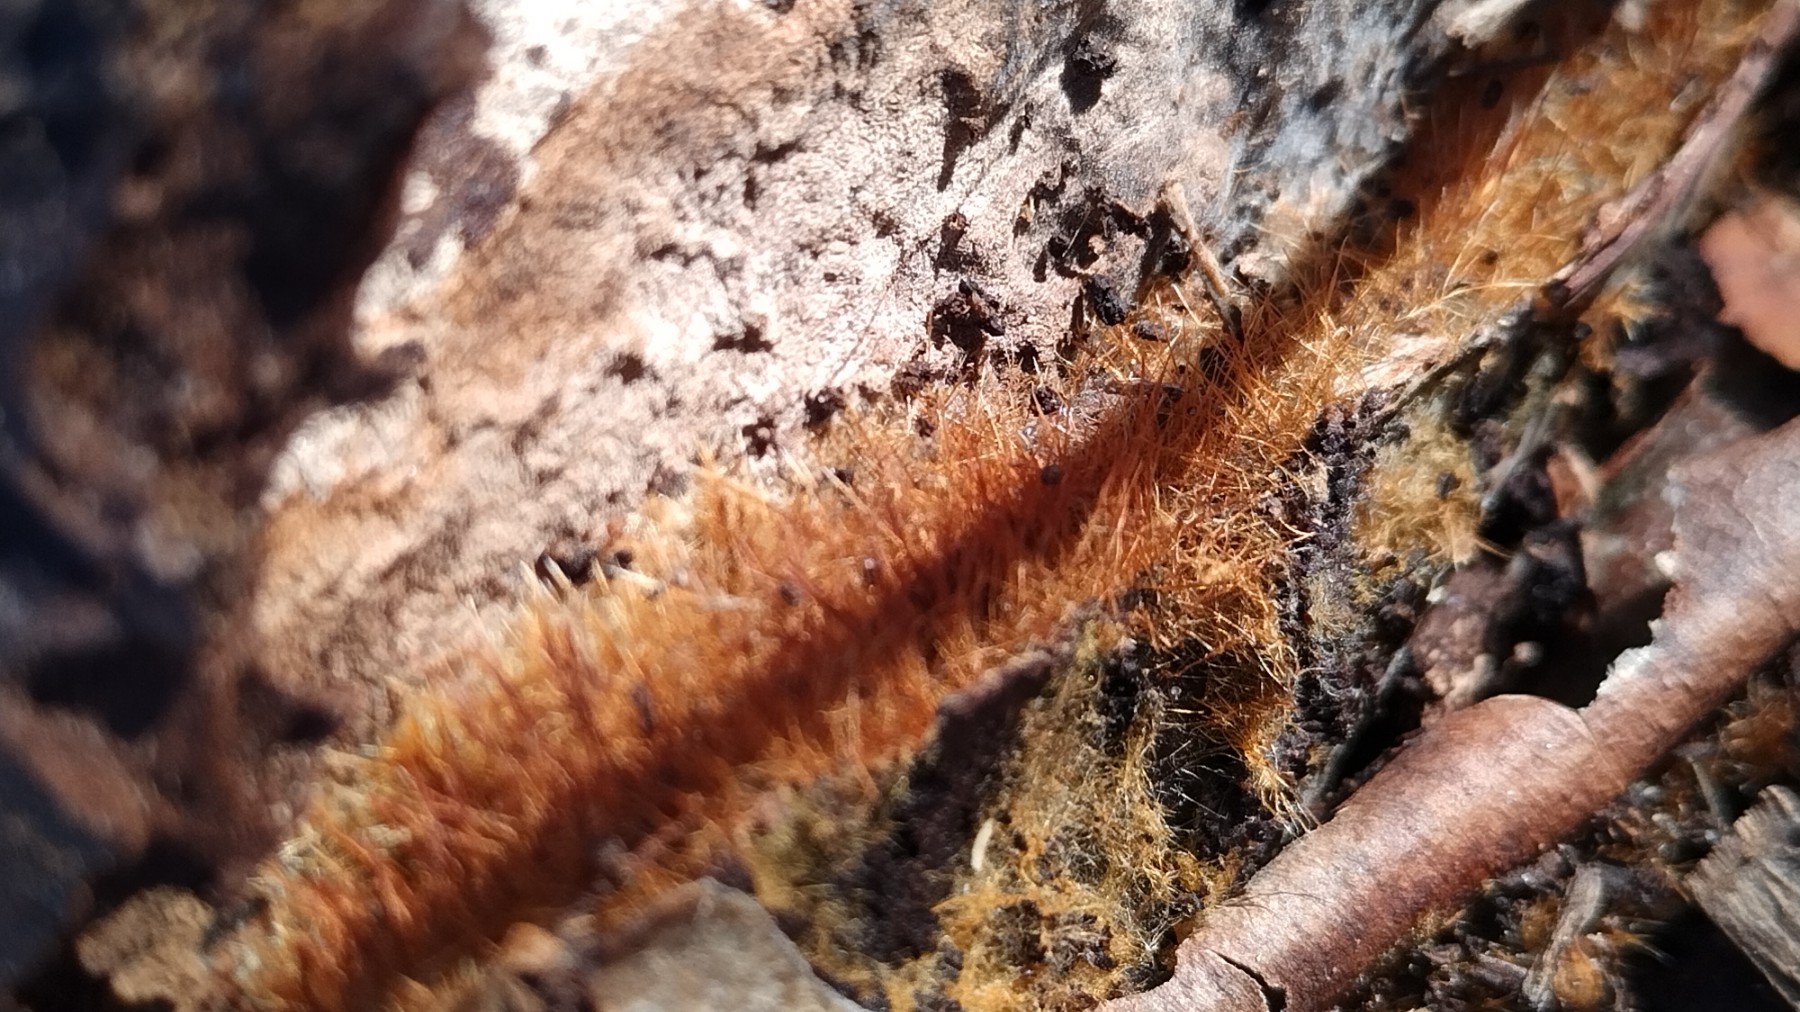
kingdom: Fungi
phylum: Basidiomycota
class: Agaricomycetes
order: Agaricales
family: Psathyrellaceae
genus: Ozonium
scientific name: Ozonium
